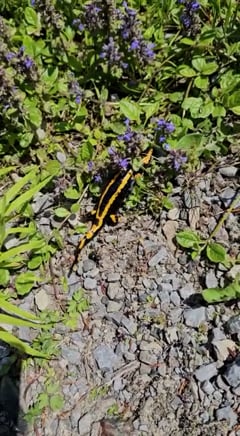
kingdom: Animalia
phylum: Chordata
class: Amphibia
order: Caudata
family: Salamandridae
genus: Salamandra
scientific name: Salamandra salamandra
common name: Fire salamander
